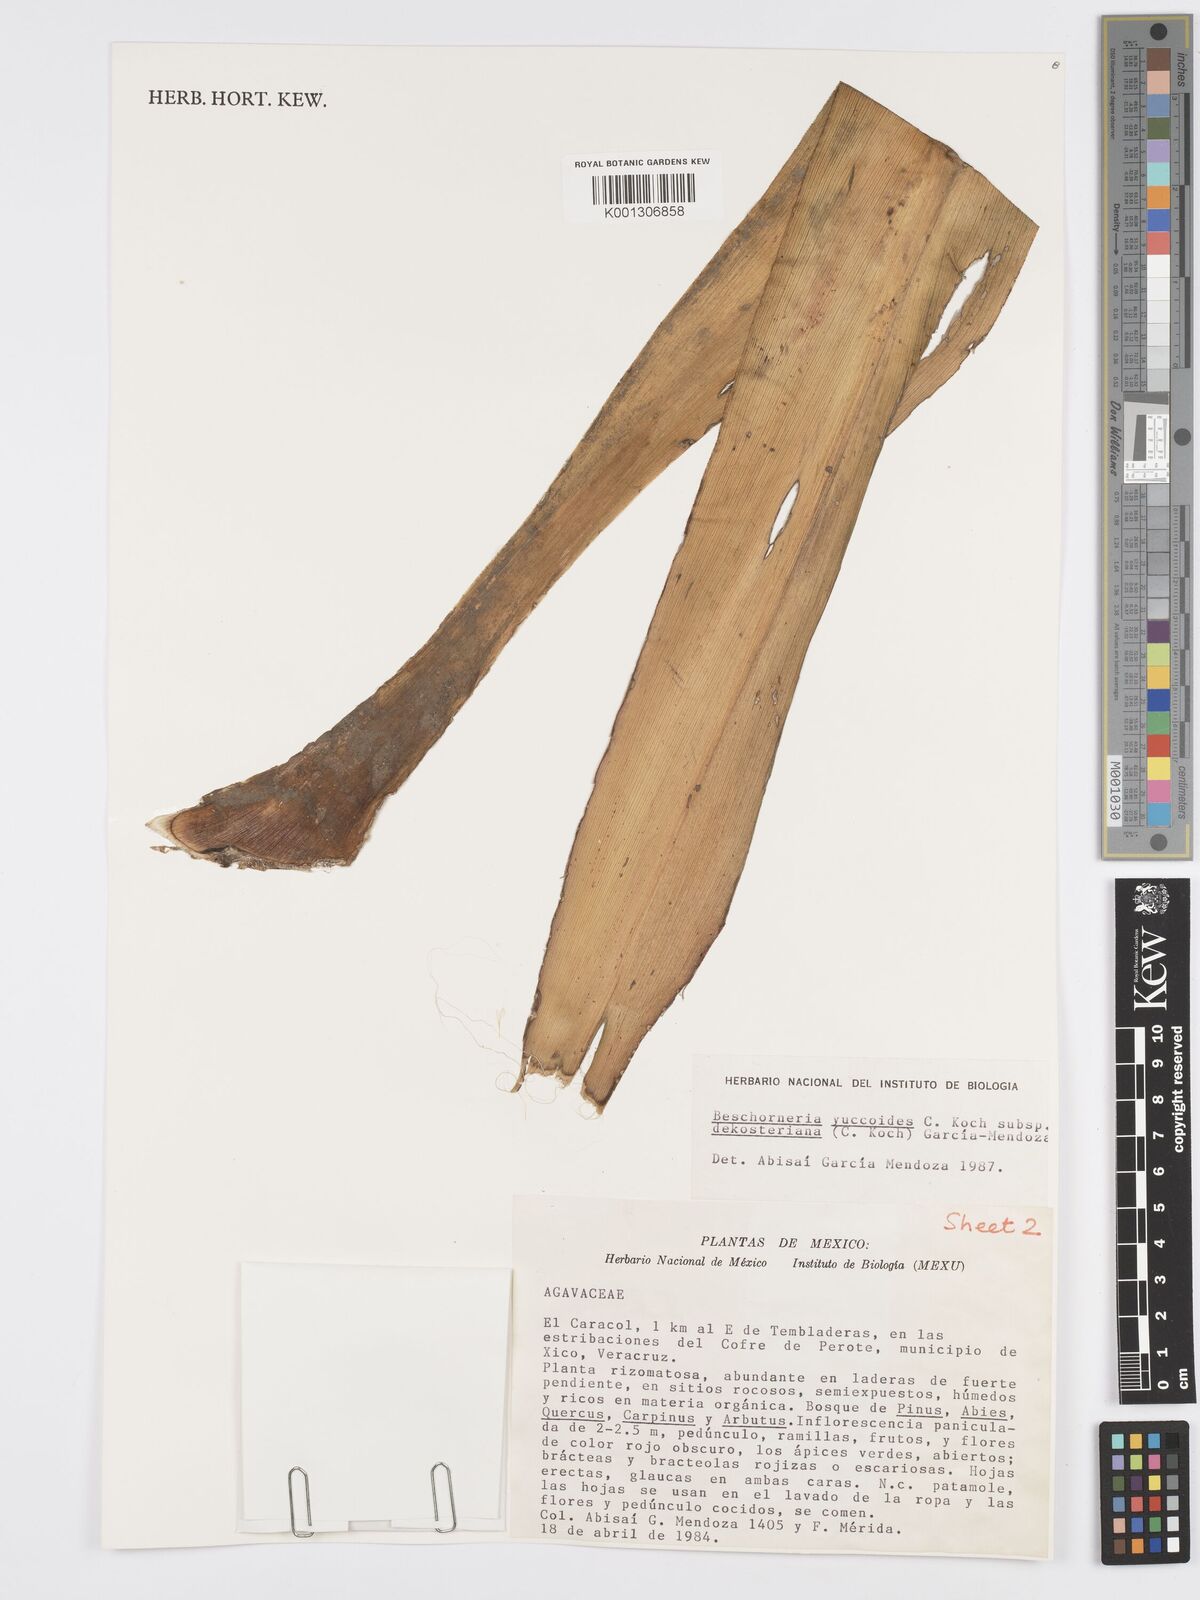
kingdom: Plantae
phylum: Tracheophyta
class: Liliopsida
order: Asparagales
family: Asparagaceae
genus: Beschorneria
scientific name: Beschorneria yuccoides
